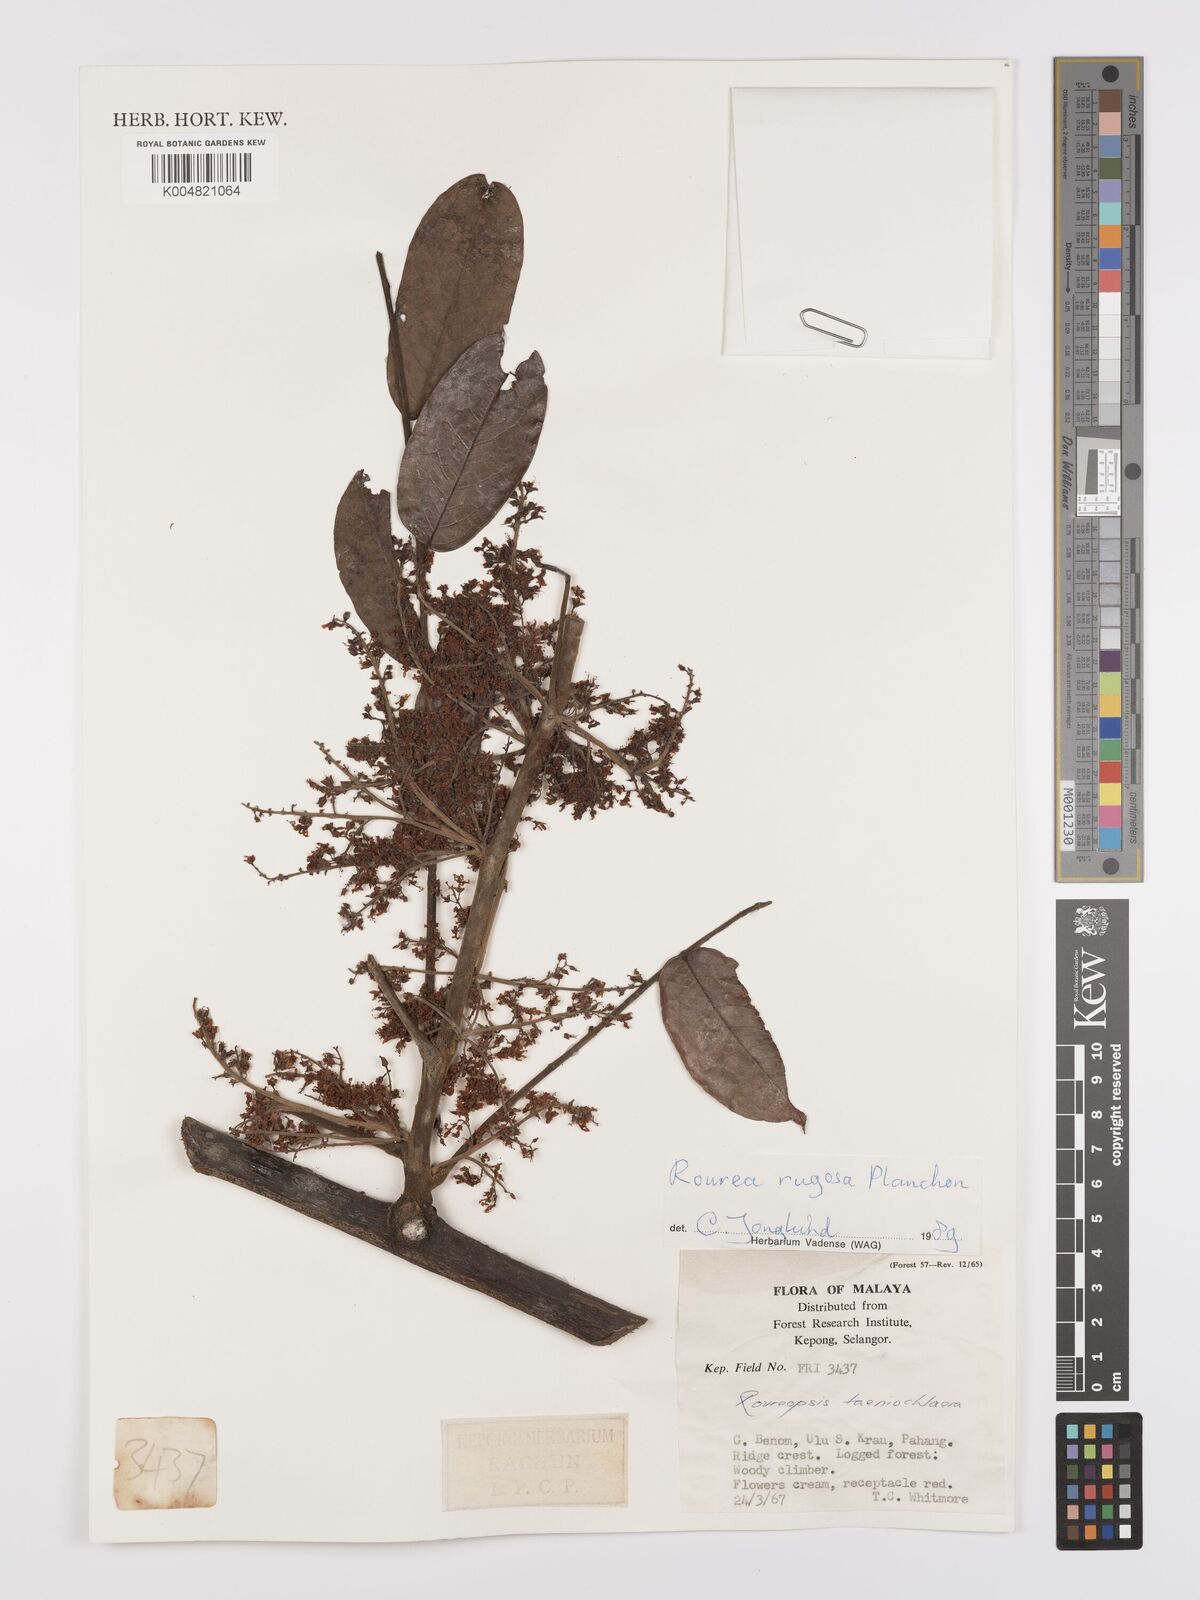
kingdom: Plantae
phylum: Tracheophyta
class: Magnoliopsida
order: Oxalidales
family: Connaraceae
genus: Rourea
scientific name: Rourea rugosa
